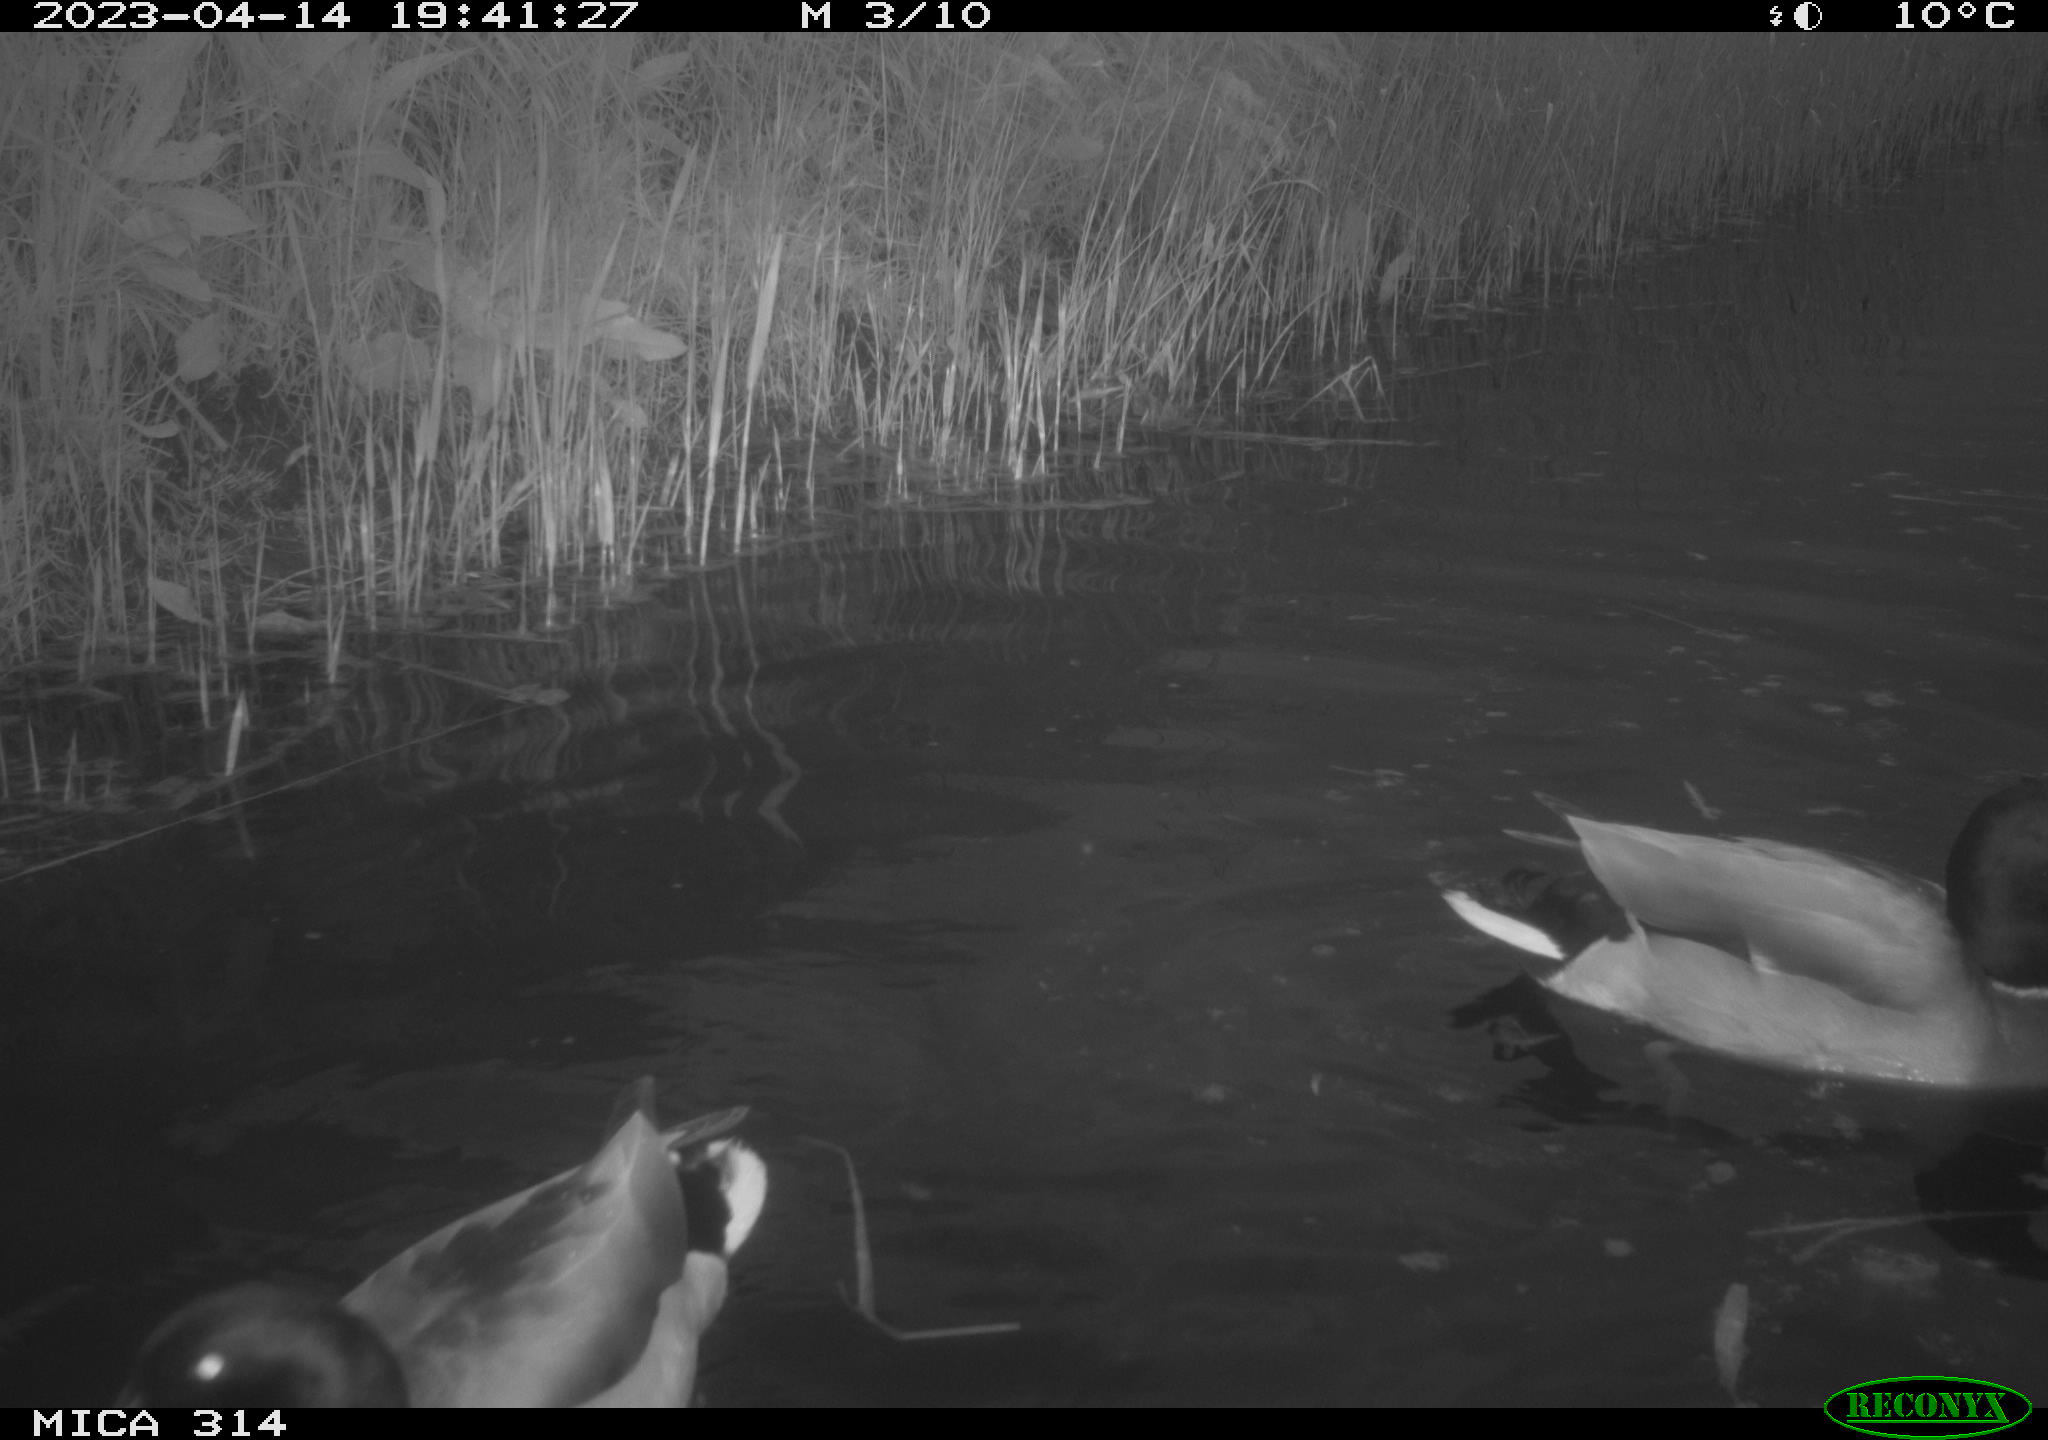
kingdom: Animalia
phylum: Chordata
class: Aves
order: Anseriformes
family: Anatidae
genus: Anas
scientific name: Anas
